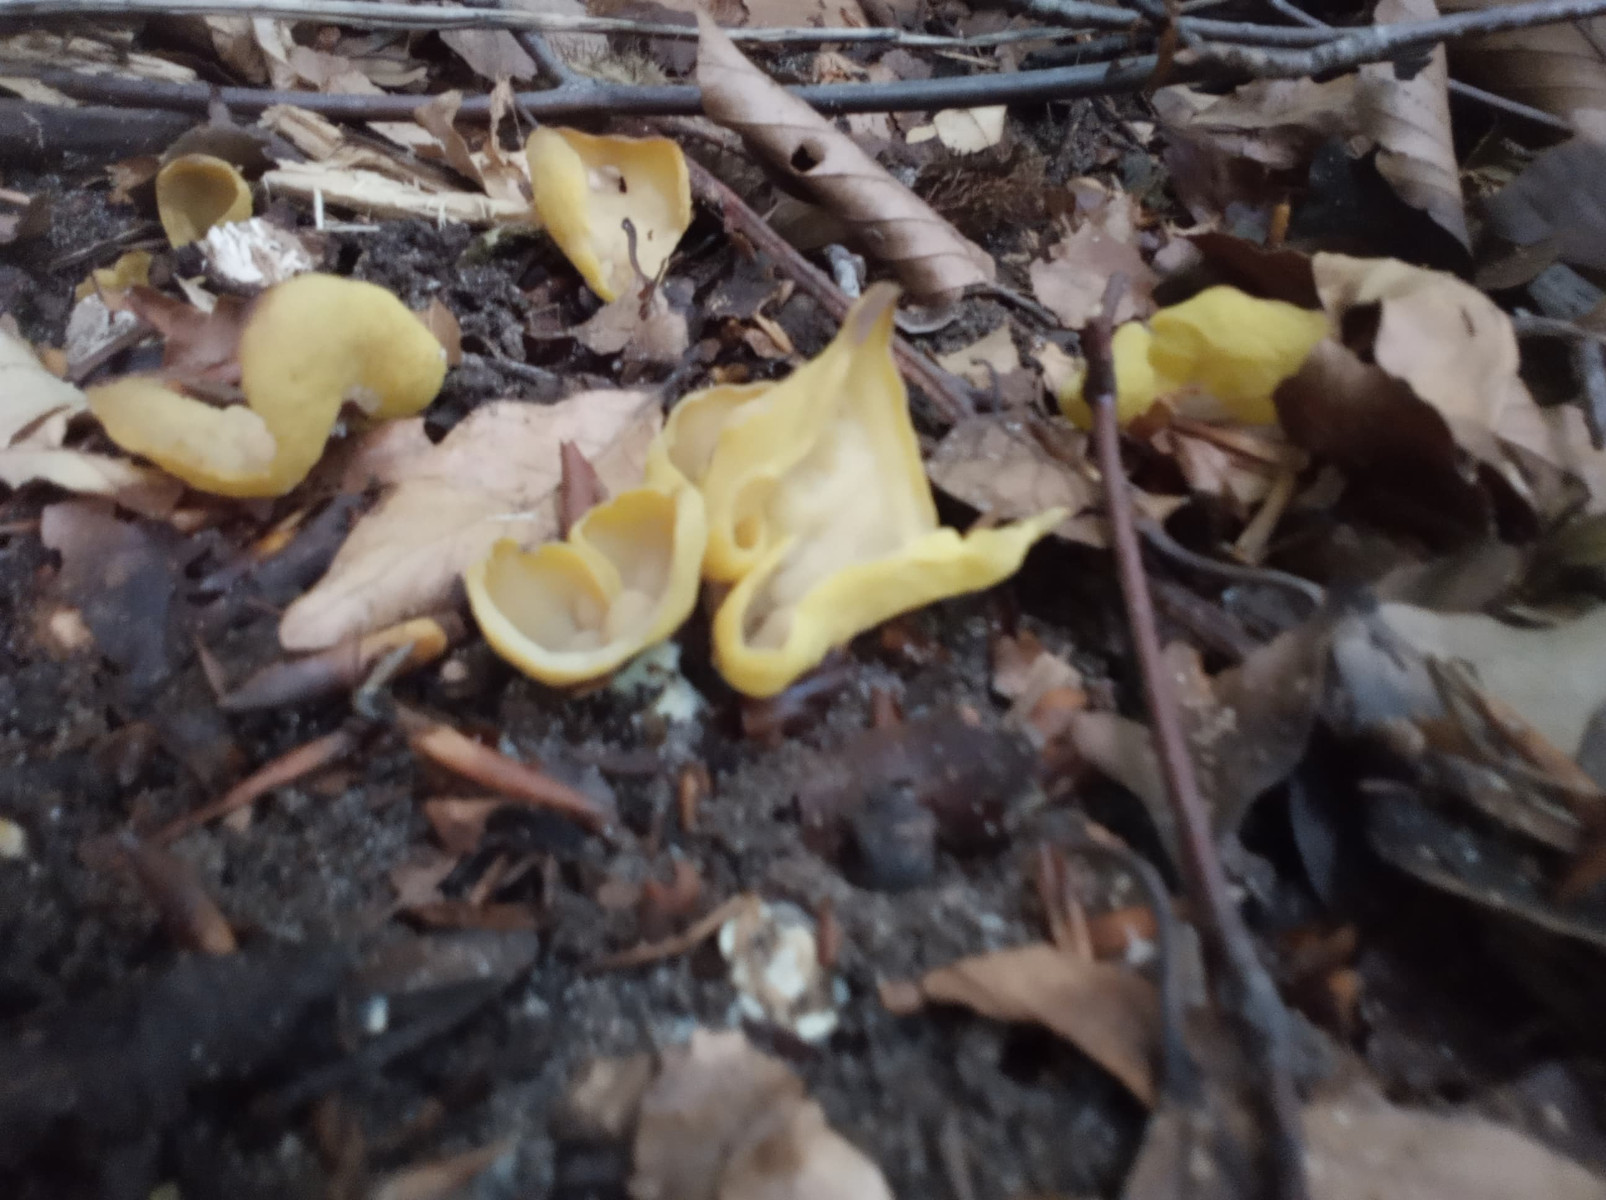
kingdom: Fungi
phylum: Ascomycota
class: Pezizomycetes
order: Pezizales
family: Otideaceae
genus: Otidea
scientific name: Otidea minor
